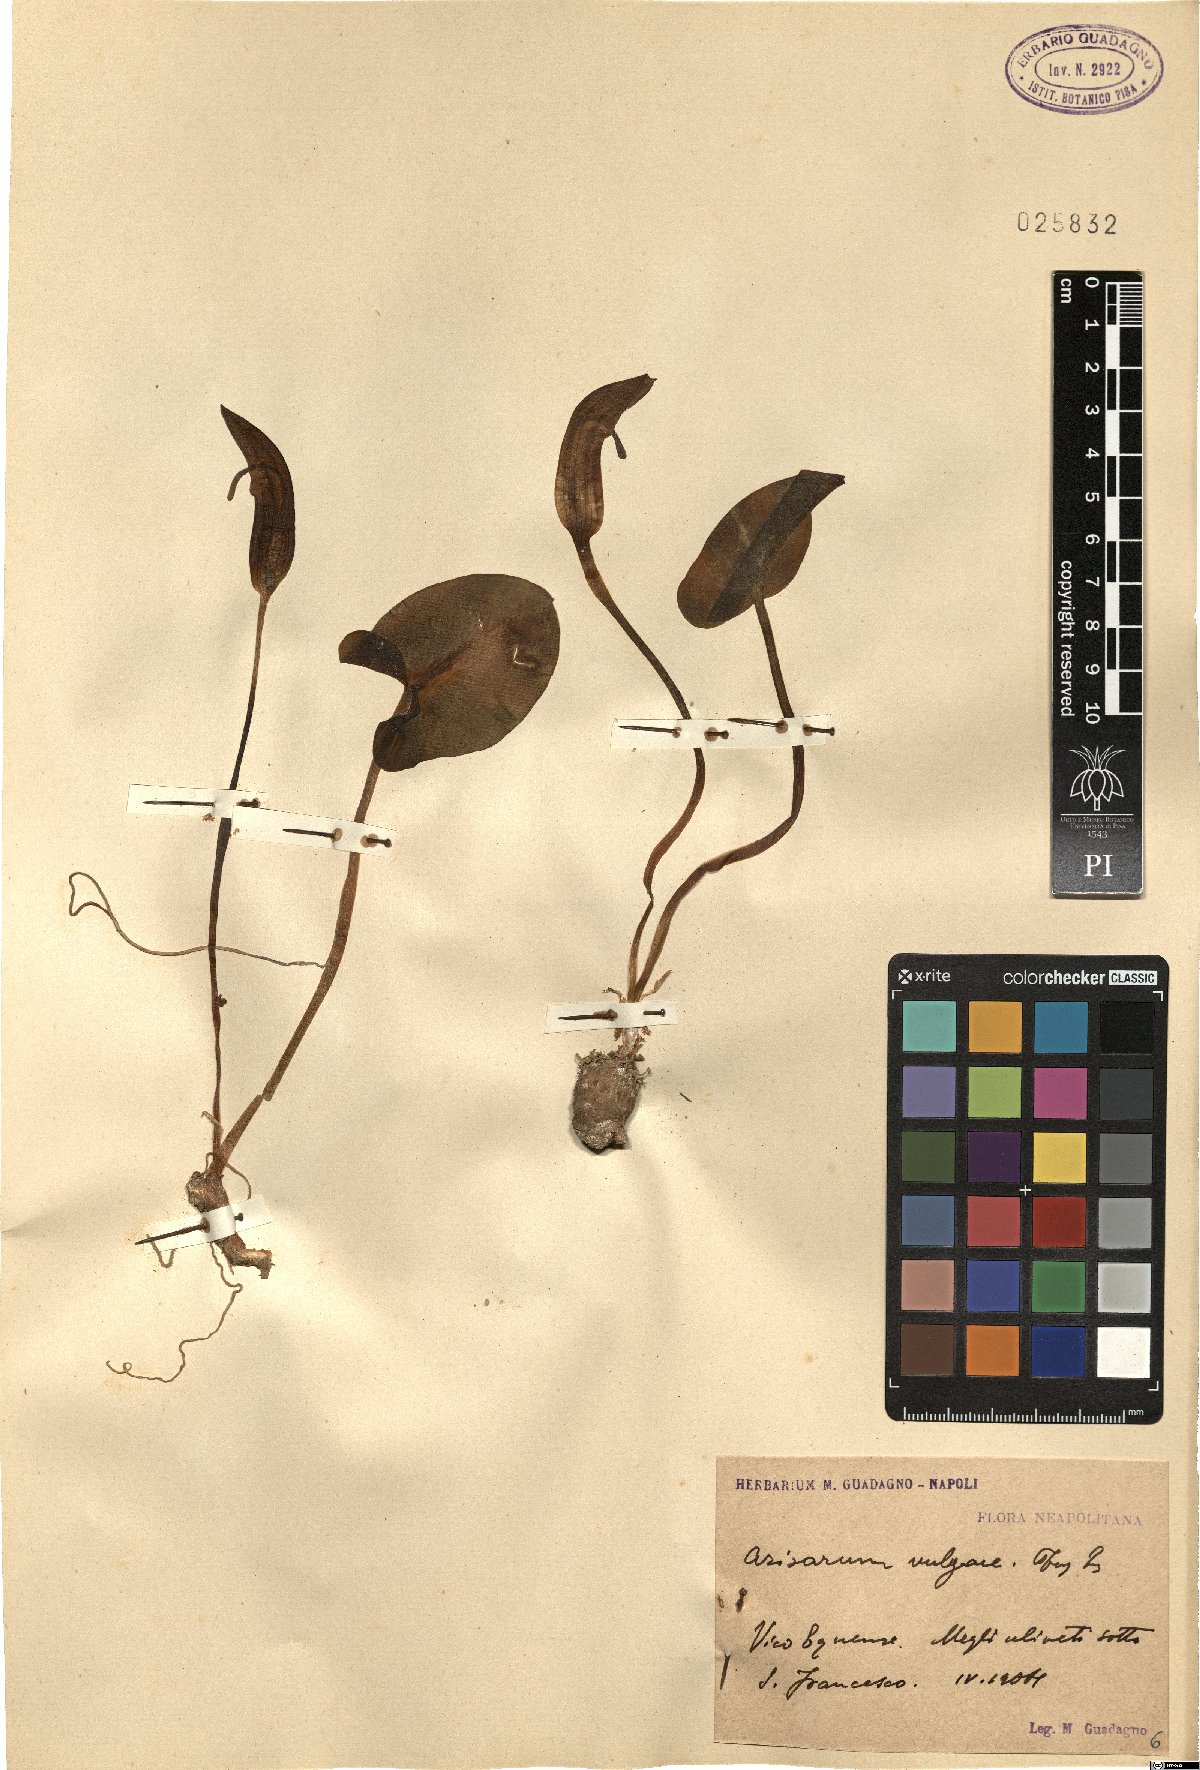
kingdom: Plantae
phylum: Tracheophyta
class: Liliopsida
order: Alismatales
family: Araceae
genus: Arisarum
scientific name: Arisarum vulgare
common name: Common arisarum
